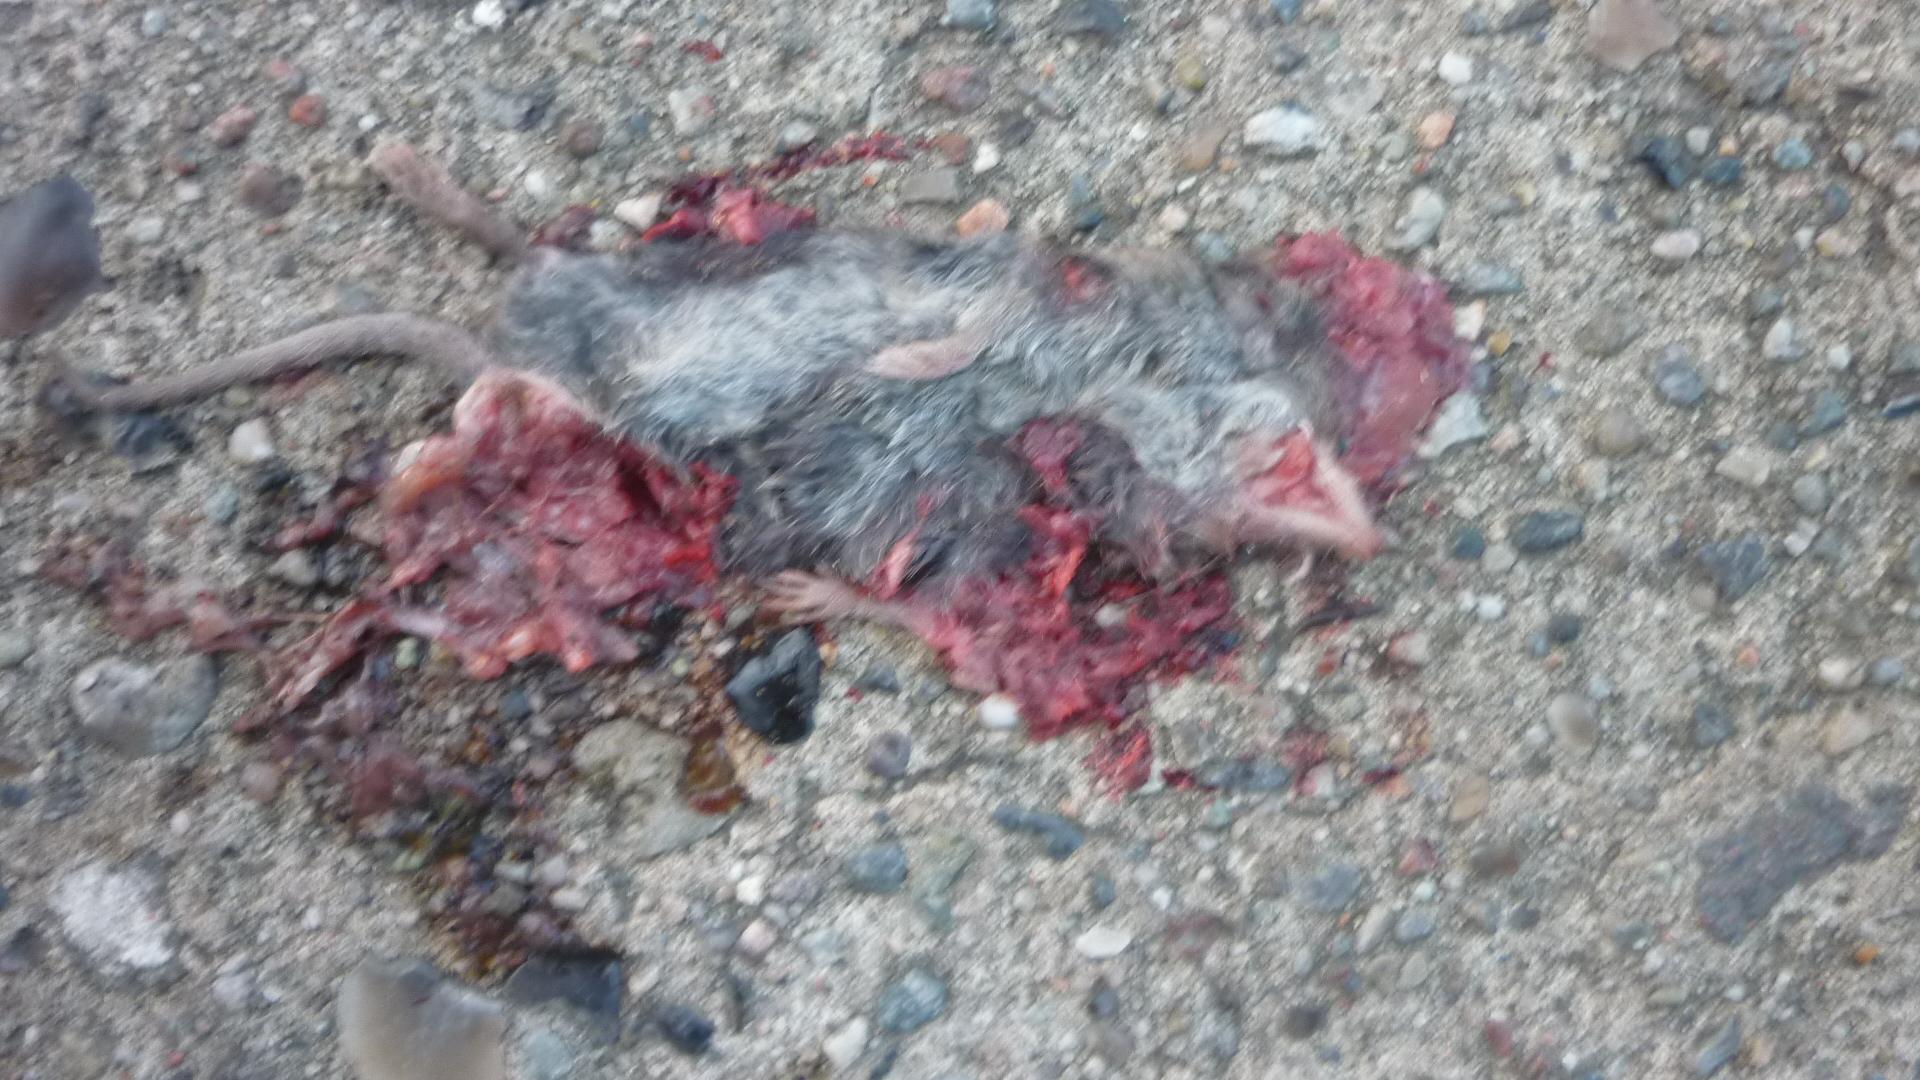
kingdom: Animalia
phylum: Chordata
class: Mammalia
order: Soricomorpha
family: Soricidae
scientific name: Soricidae
